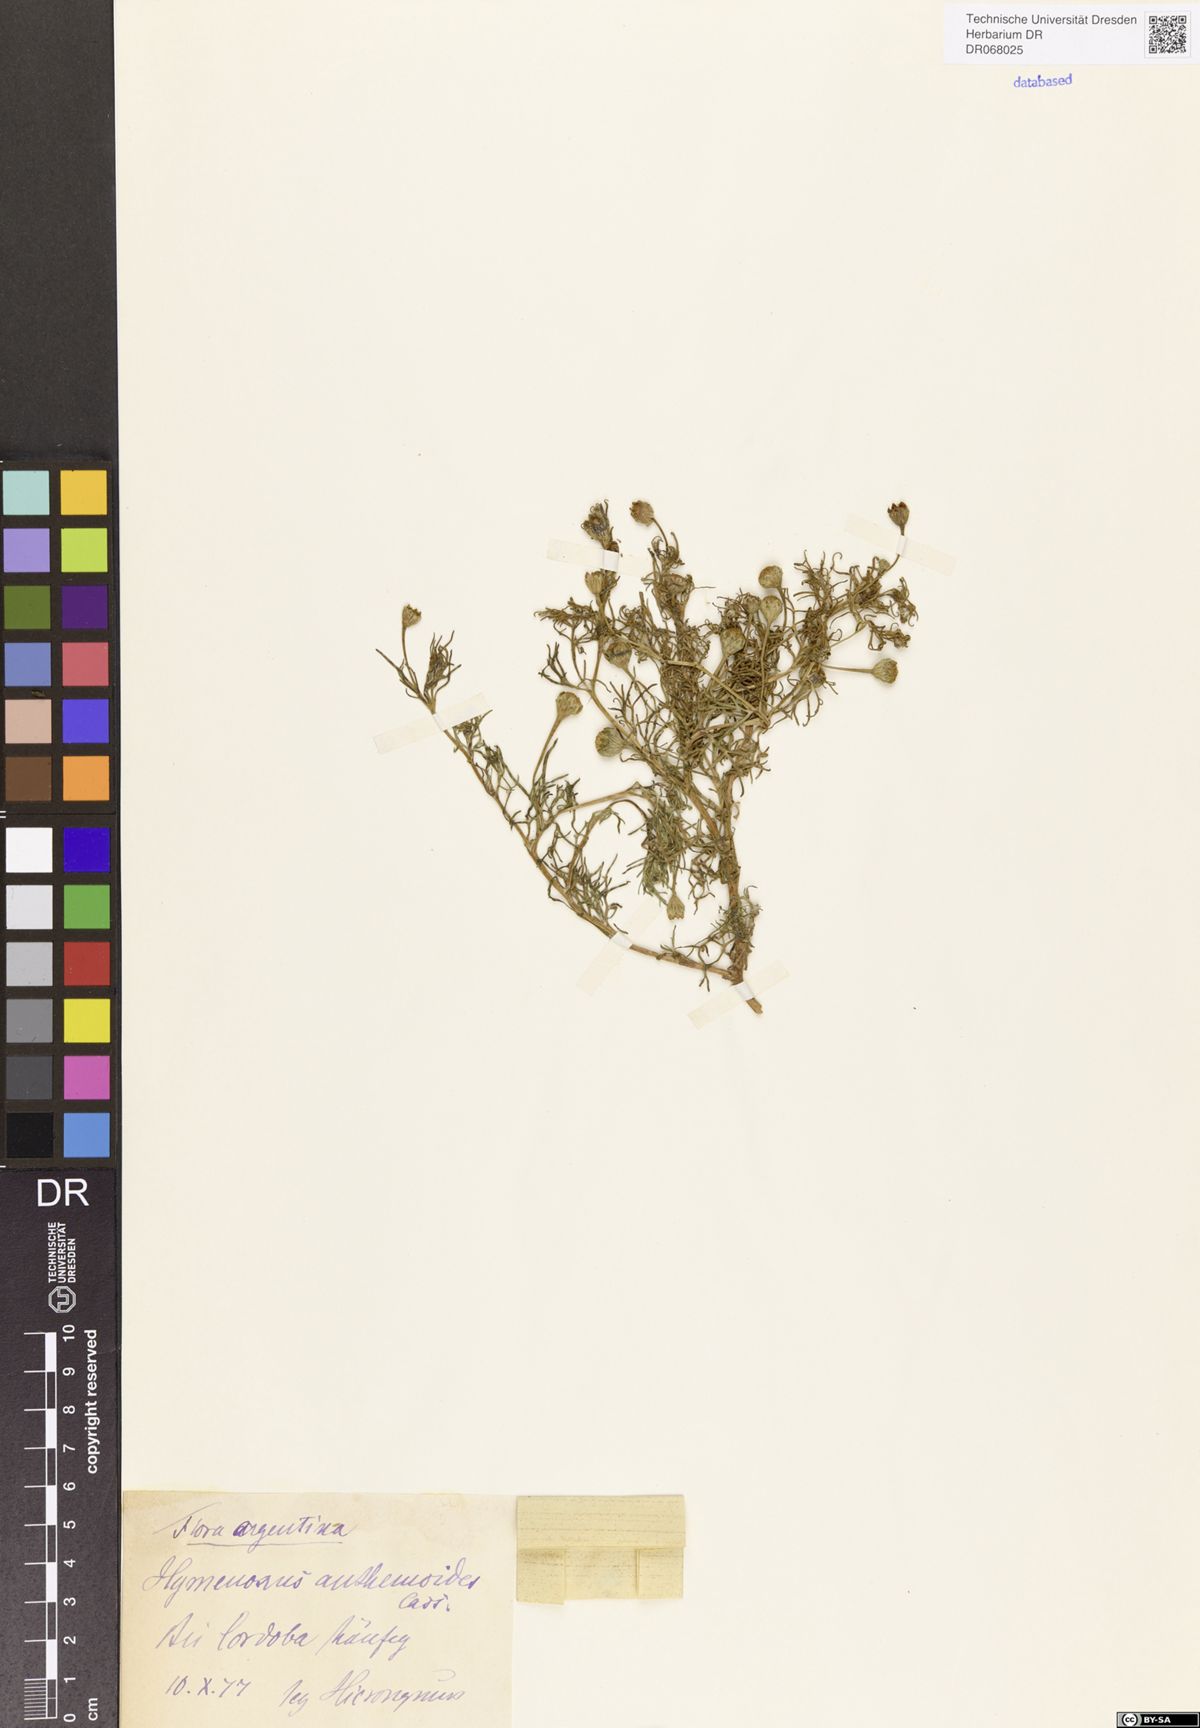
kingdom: Plantae
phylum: Tracheophyta
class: Magnoliopsida
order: Asterales
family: Asteraceae
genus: Hymenoxys
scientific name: Hymenoxys anthemoides
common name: South american rubberweed
